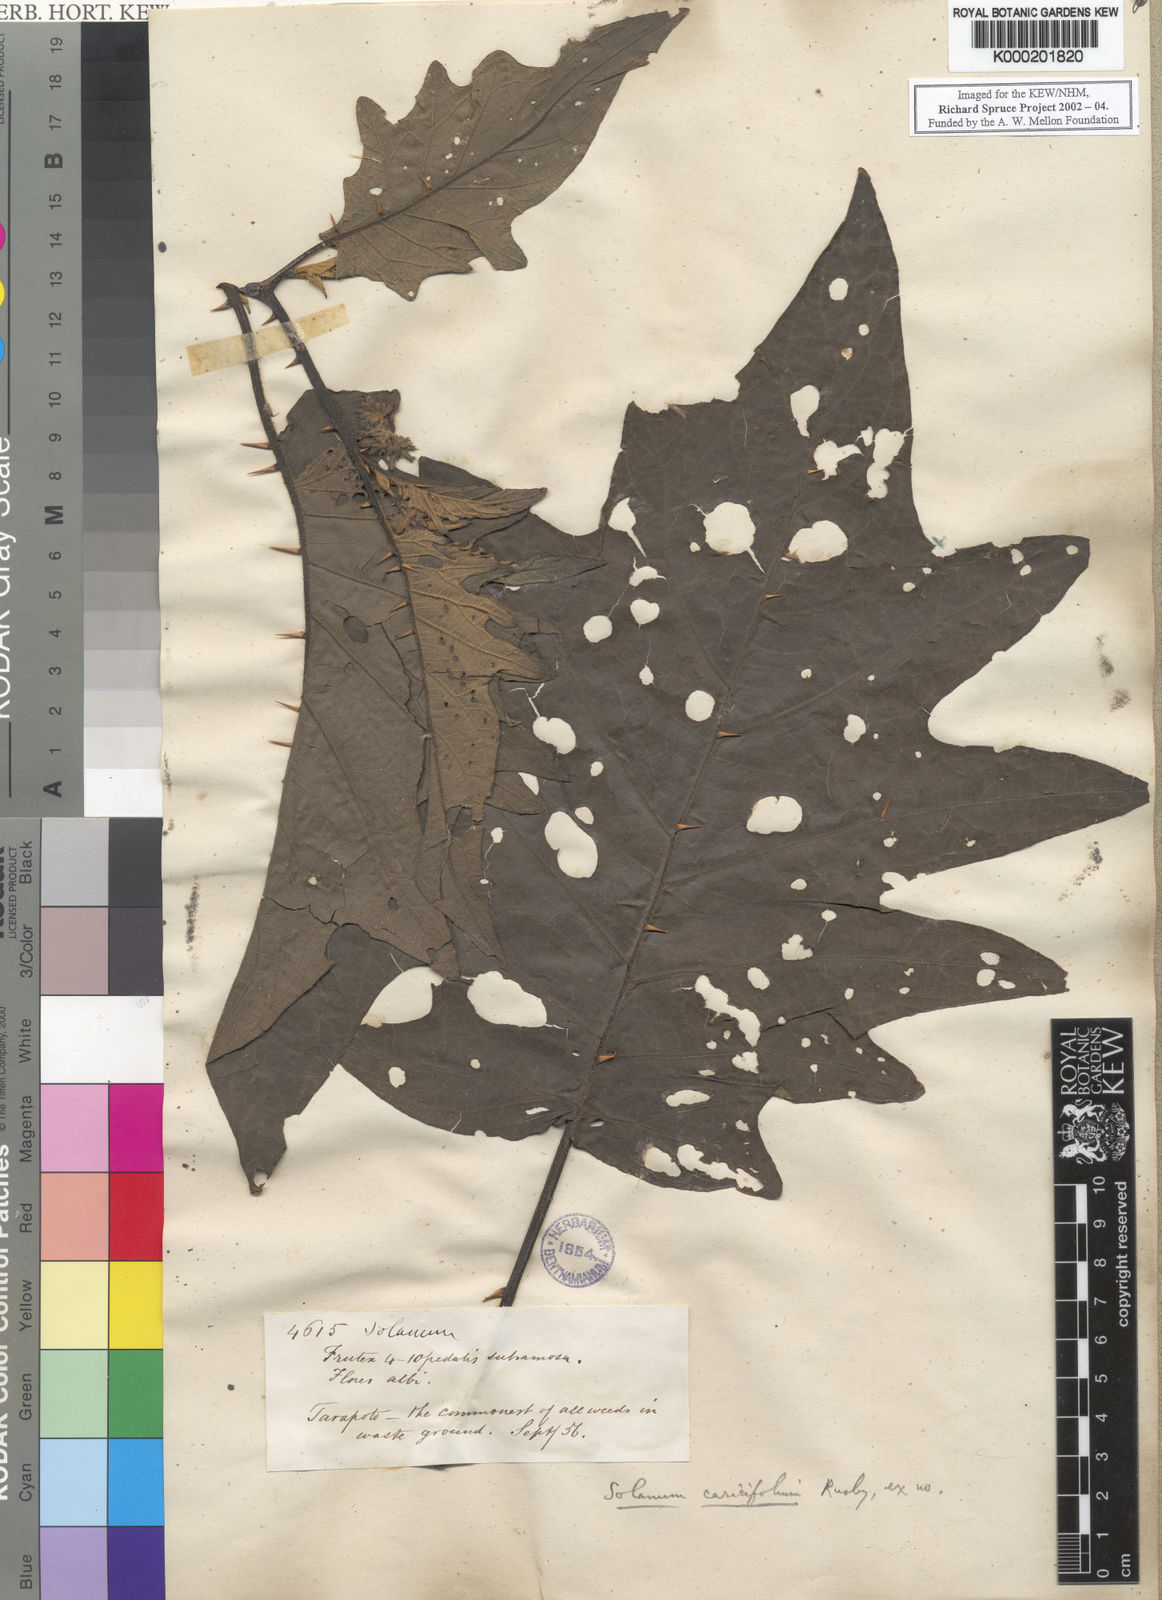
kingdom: Plantae
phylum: Tracheophyta
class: Magnoliopsida
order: Solanales
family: Solanaceae
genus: Solanum
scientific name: Solanum caricaefolium
